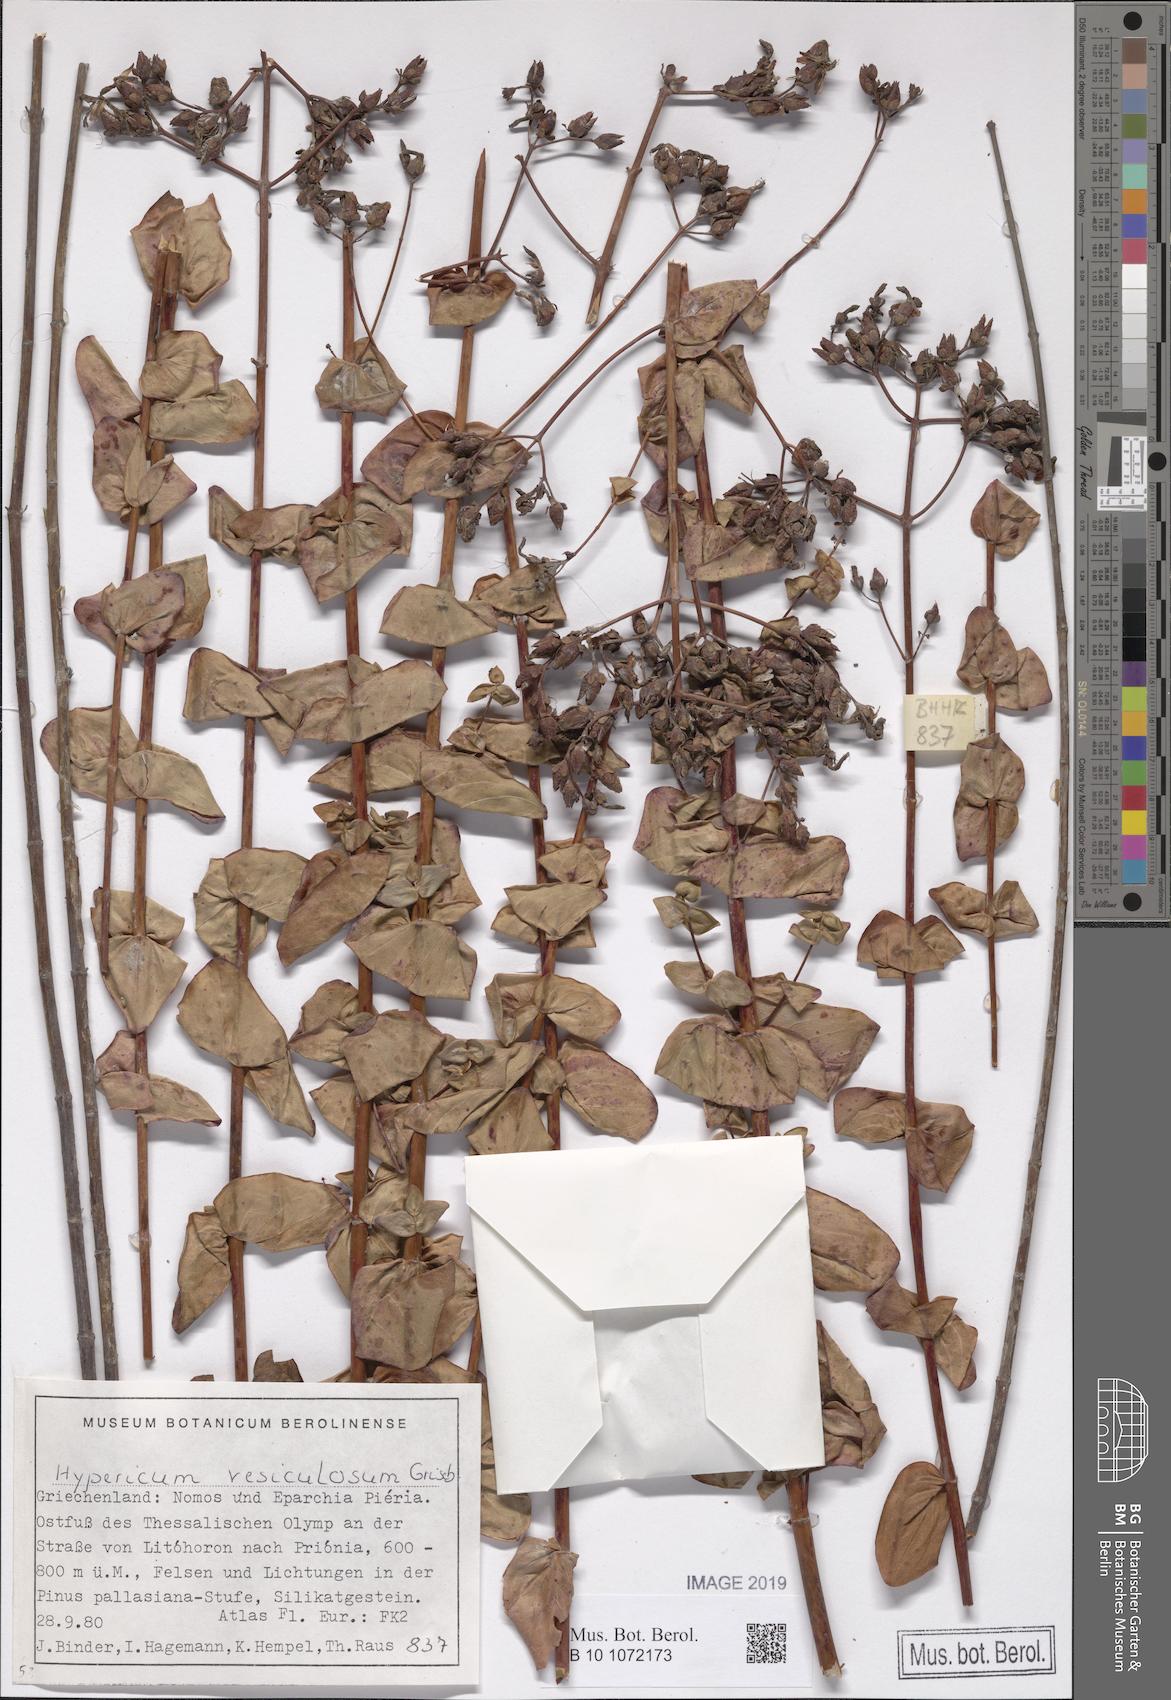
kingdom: Plantae
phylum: Tracheophyta
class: Magnoliopsida
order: Malpighiales
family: Hypericaceae
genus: Hypericum
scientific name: Hypericum vesiculosum
